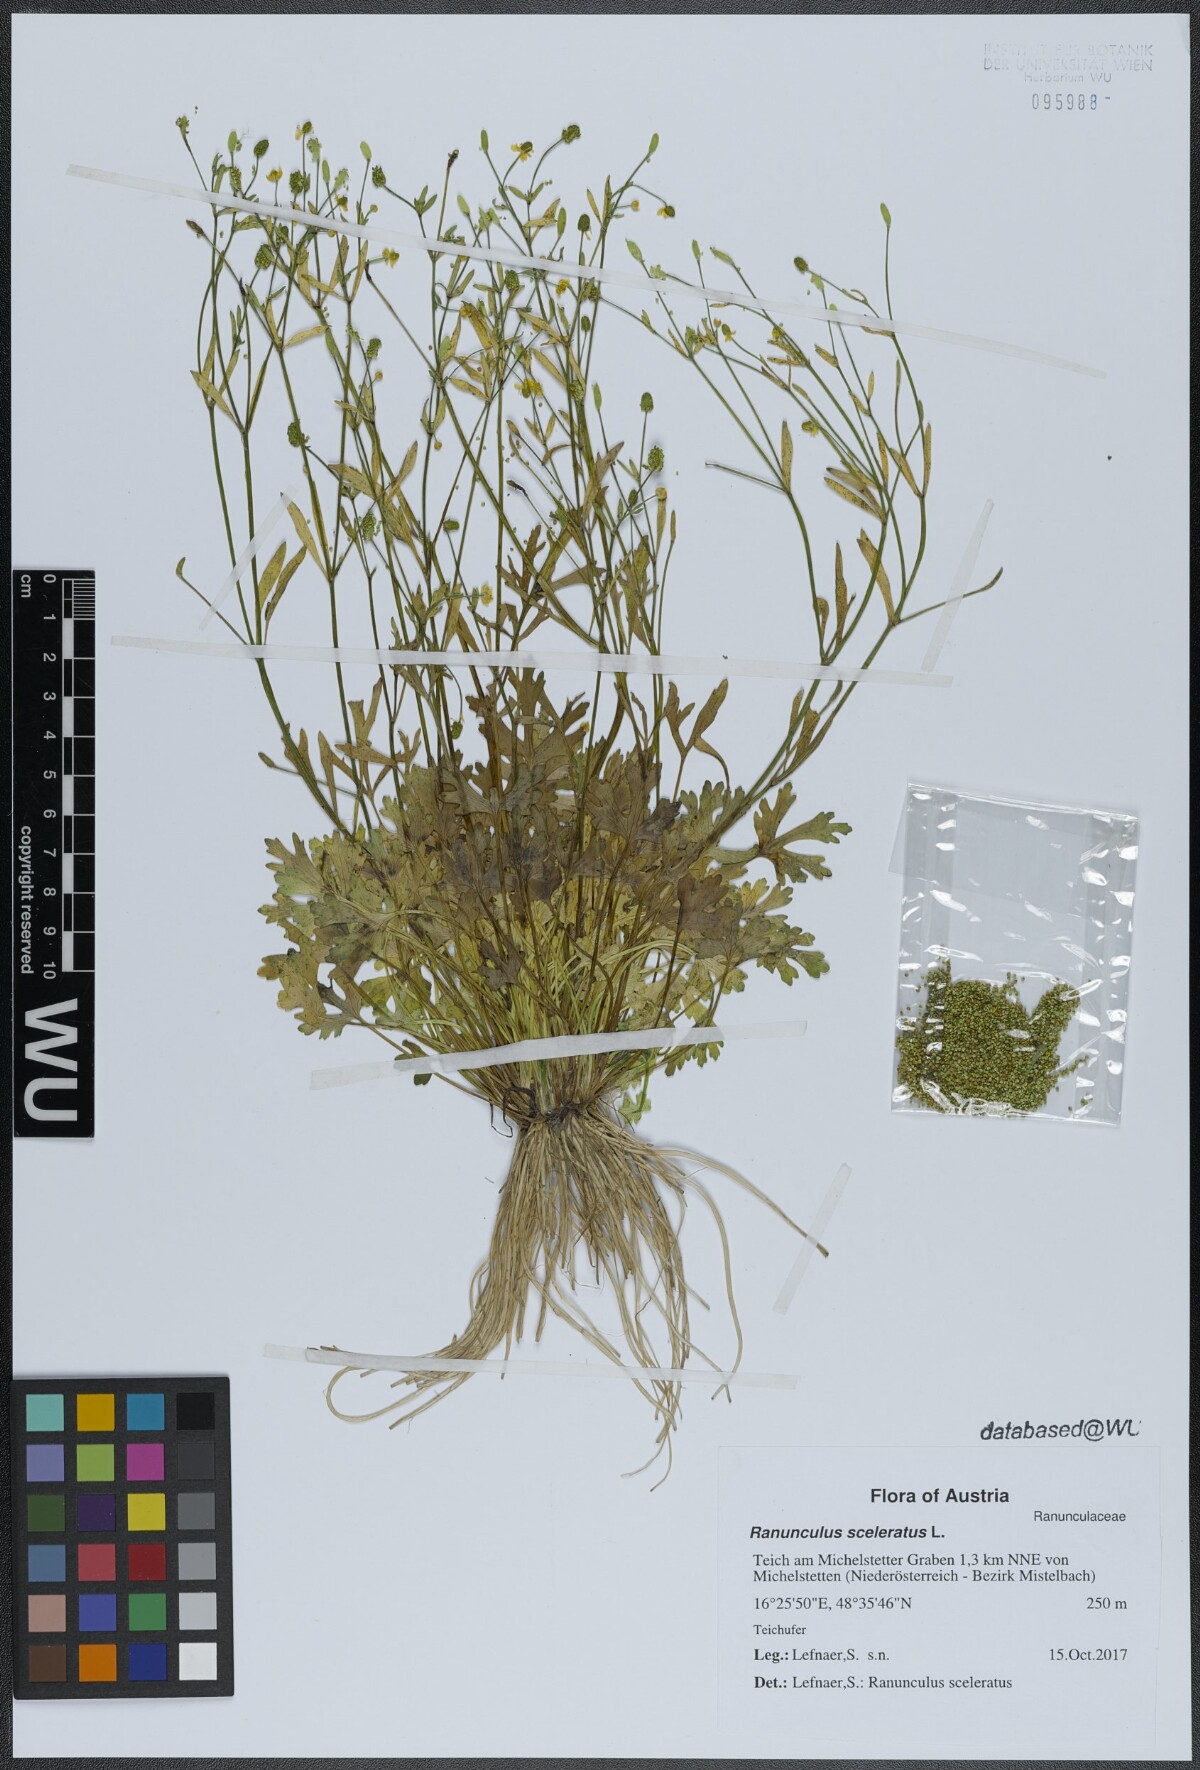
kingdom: Plantae
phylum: Tracheophyta
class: Magnoliopsida
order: Ranunculales
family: Ranunculaceae
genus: Ranunculus
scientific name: Ranunculus sceleratus
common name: Celery-leaved buttercup
